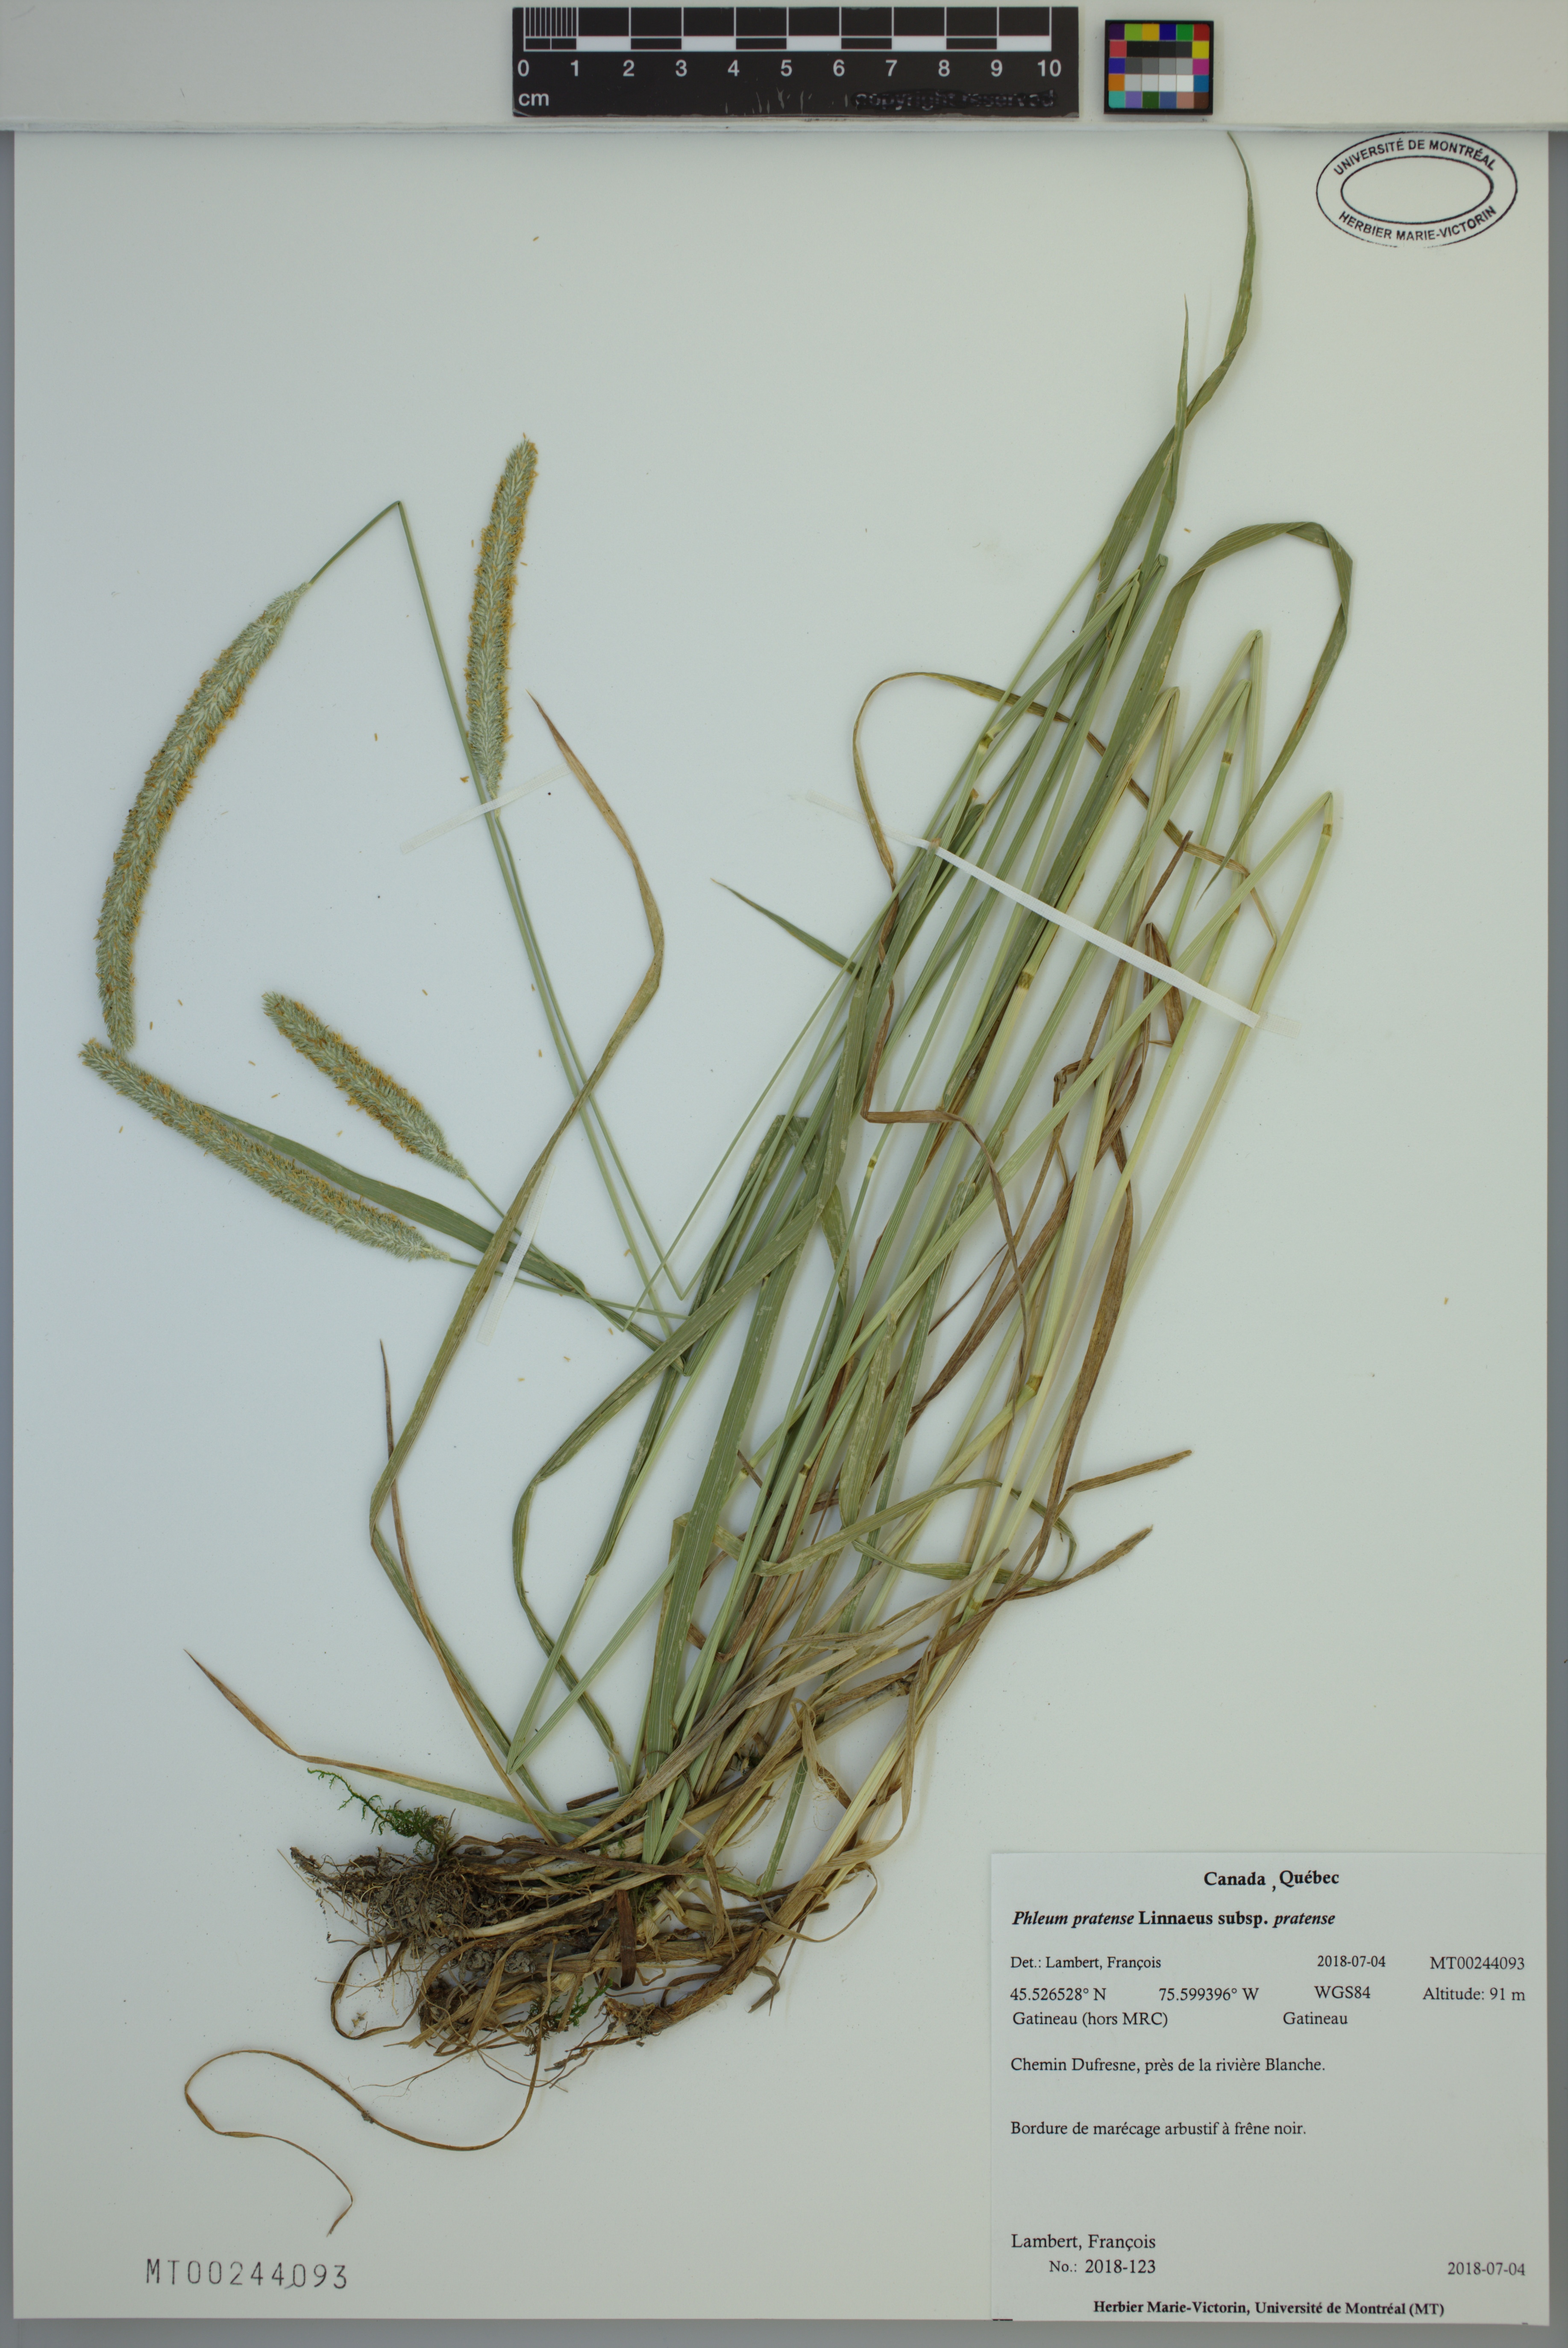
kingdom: Plantae
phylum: Tracheophyta
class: Liliopsida
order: Poales
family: Poaceae
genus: Phleum
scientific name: Phleum pratense
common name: Timothy grass
